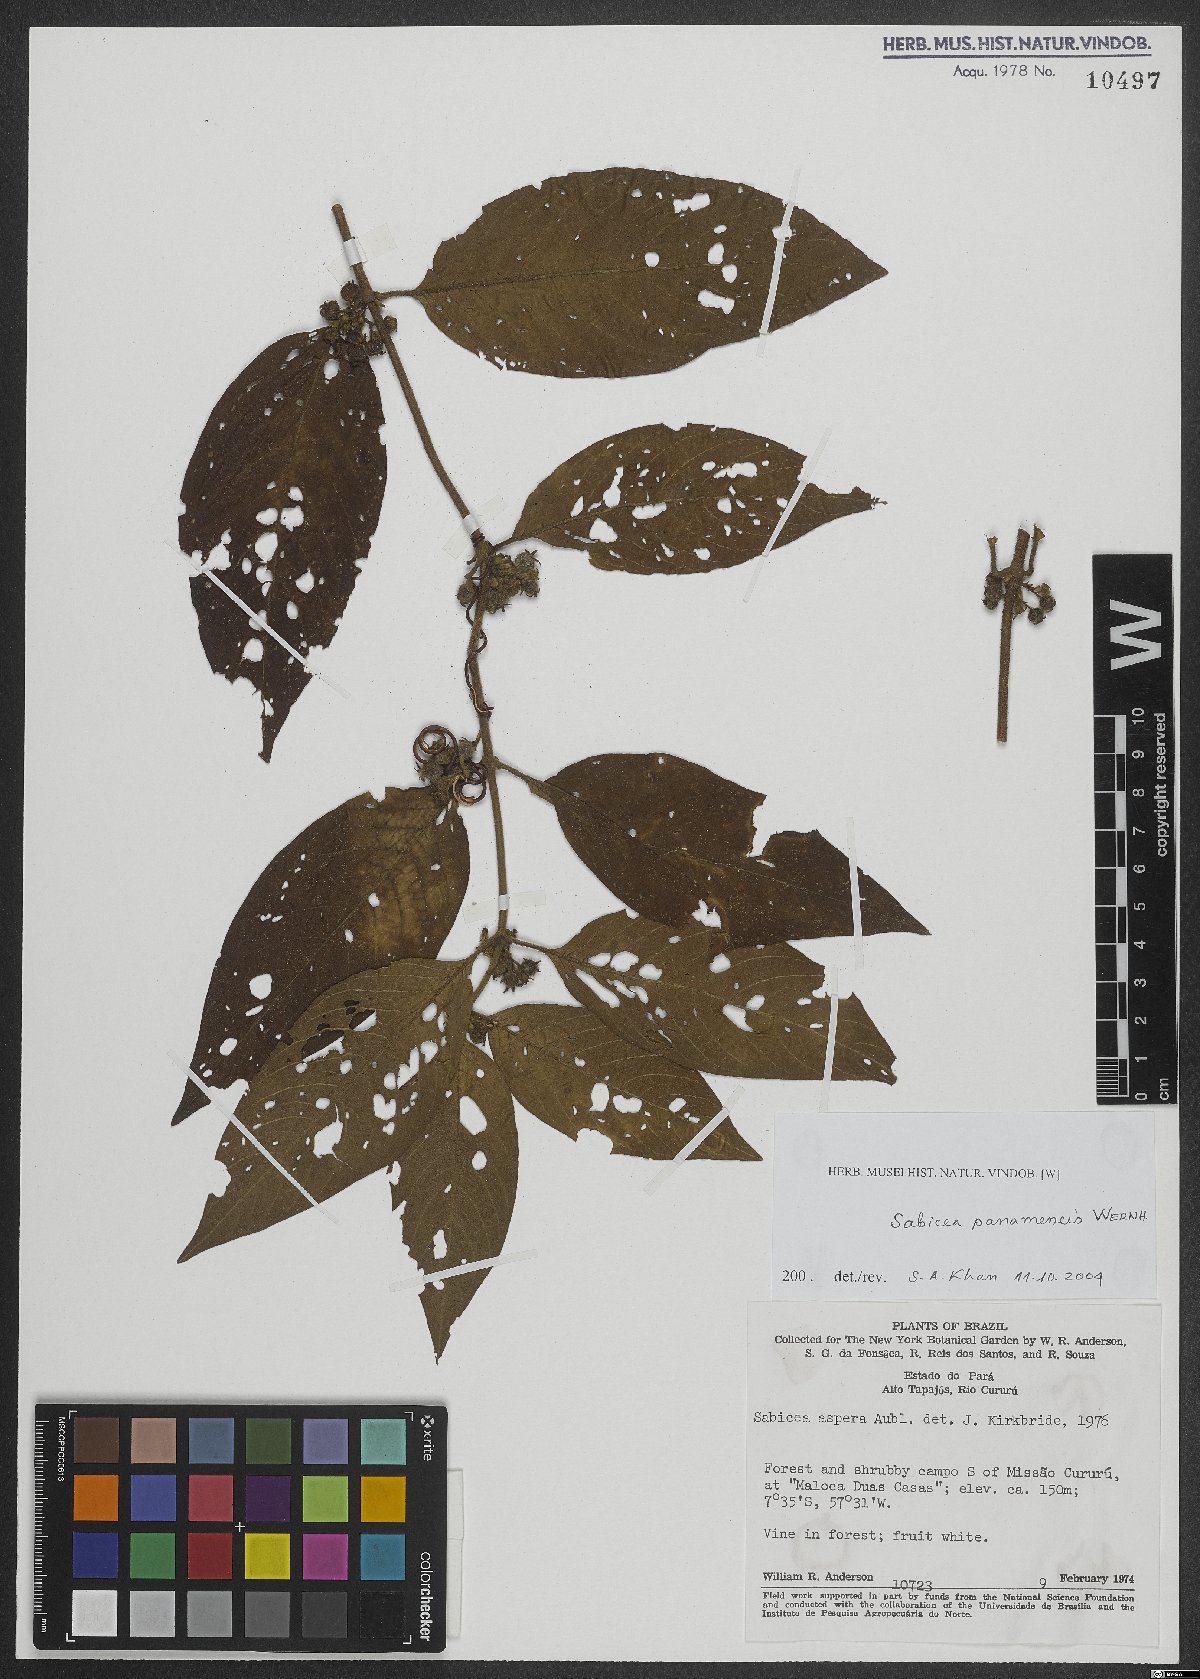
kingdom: Plantae
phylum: Tracheophyta
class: Magnoliopsida
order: Gentianales
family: Rubiaceae
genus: Sabicea
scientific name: Sabicea aspera
